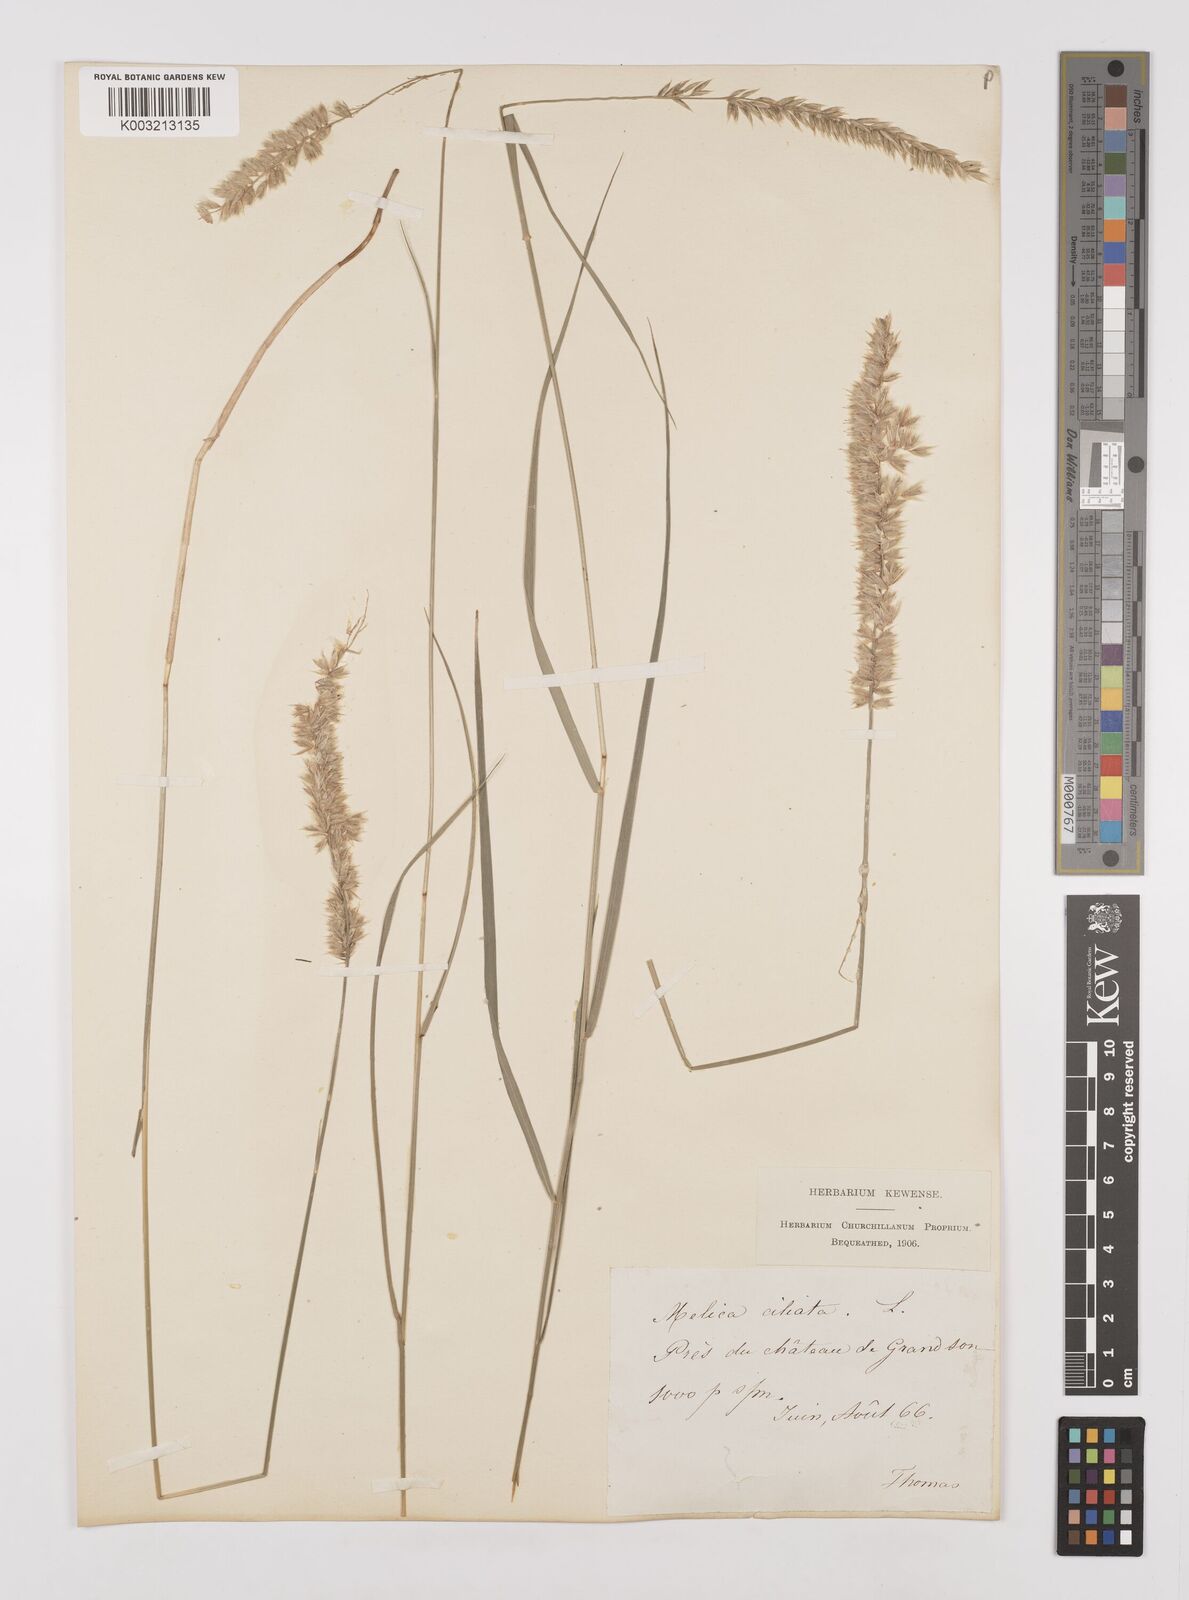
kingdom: Plantae
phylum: Tracheophyta
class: Liliopsida
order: Poales
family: Poaceae
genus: Melica
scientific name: Melica ciliata
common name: Hairy melicgrass
